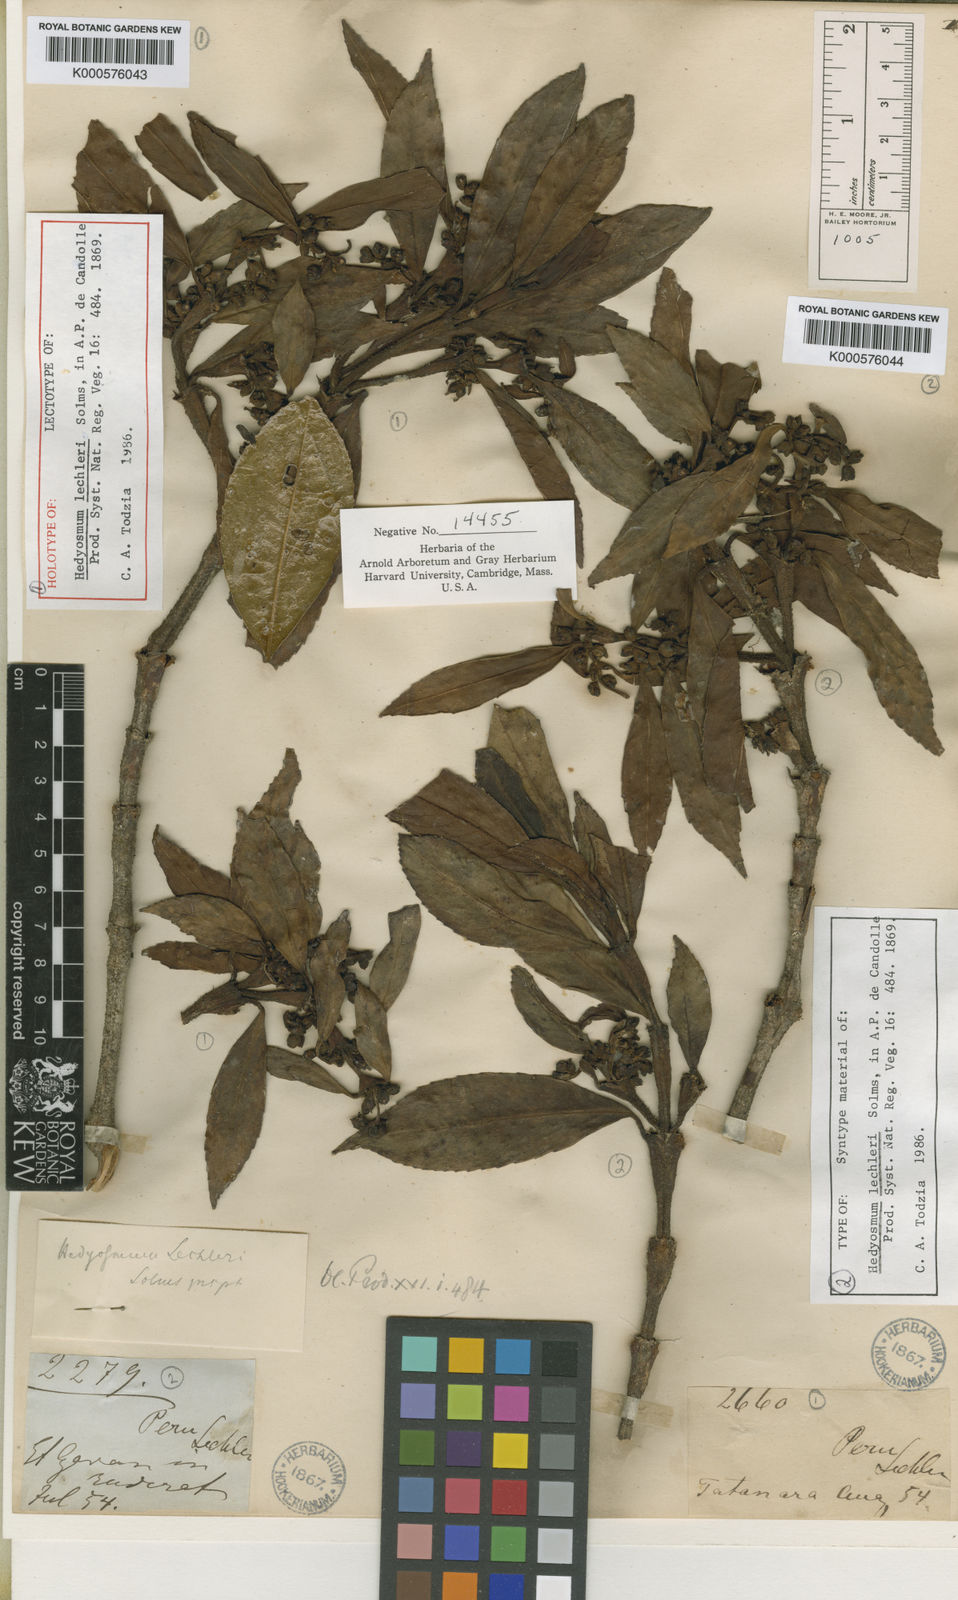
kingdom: Plantae
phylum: Tracheophyta
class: Magnoliopsida
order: Chloranthales
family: Chloranthaceae
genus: Hedyosmum
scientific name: Hedyosmum lechleri
